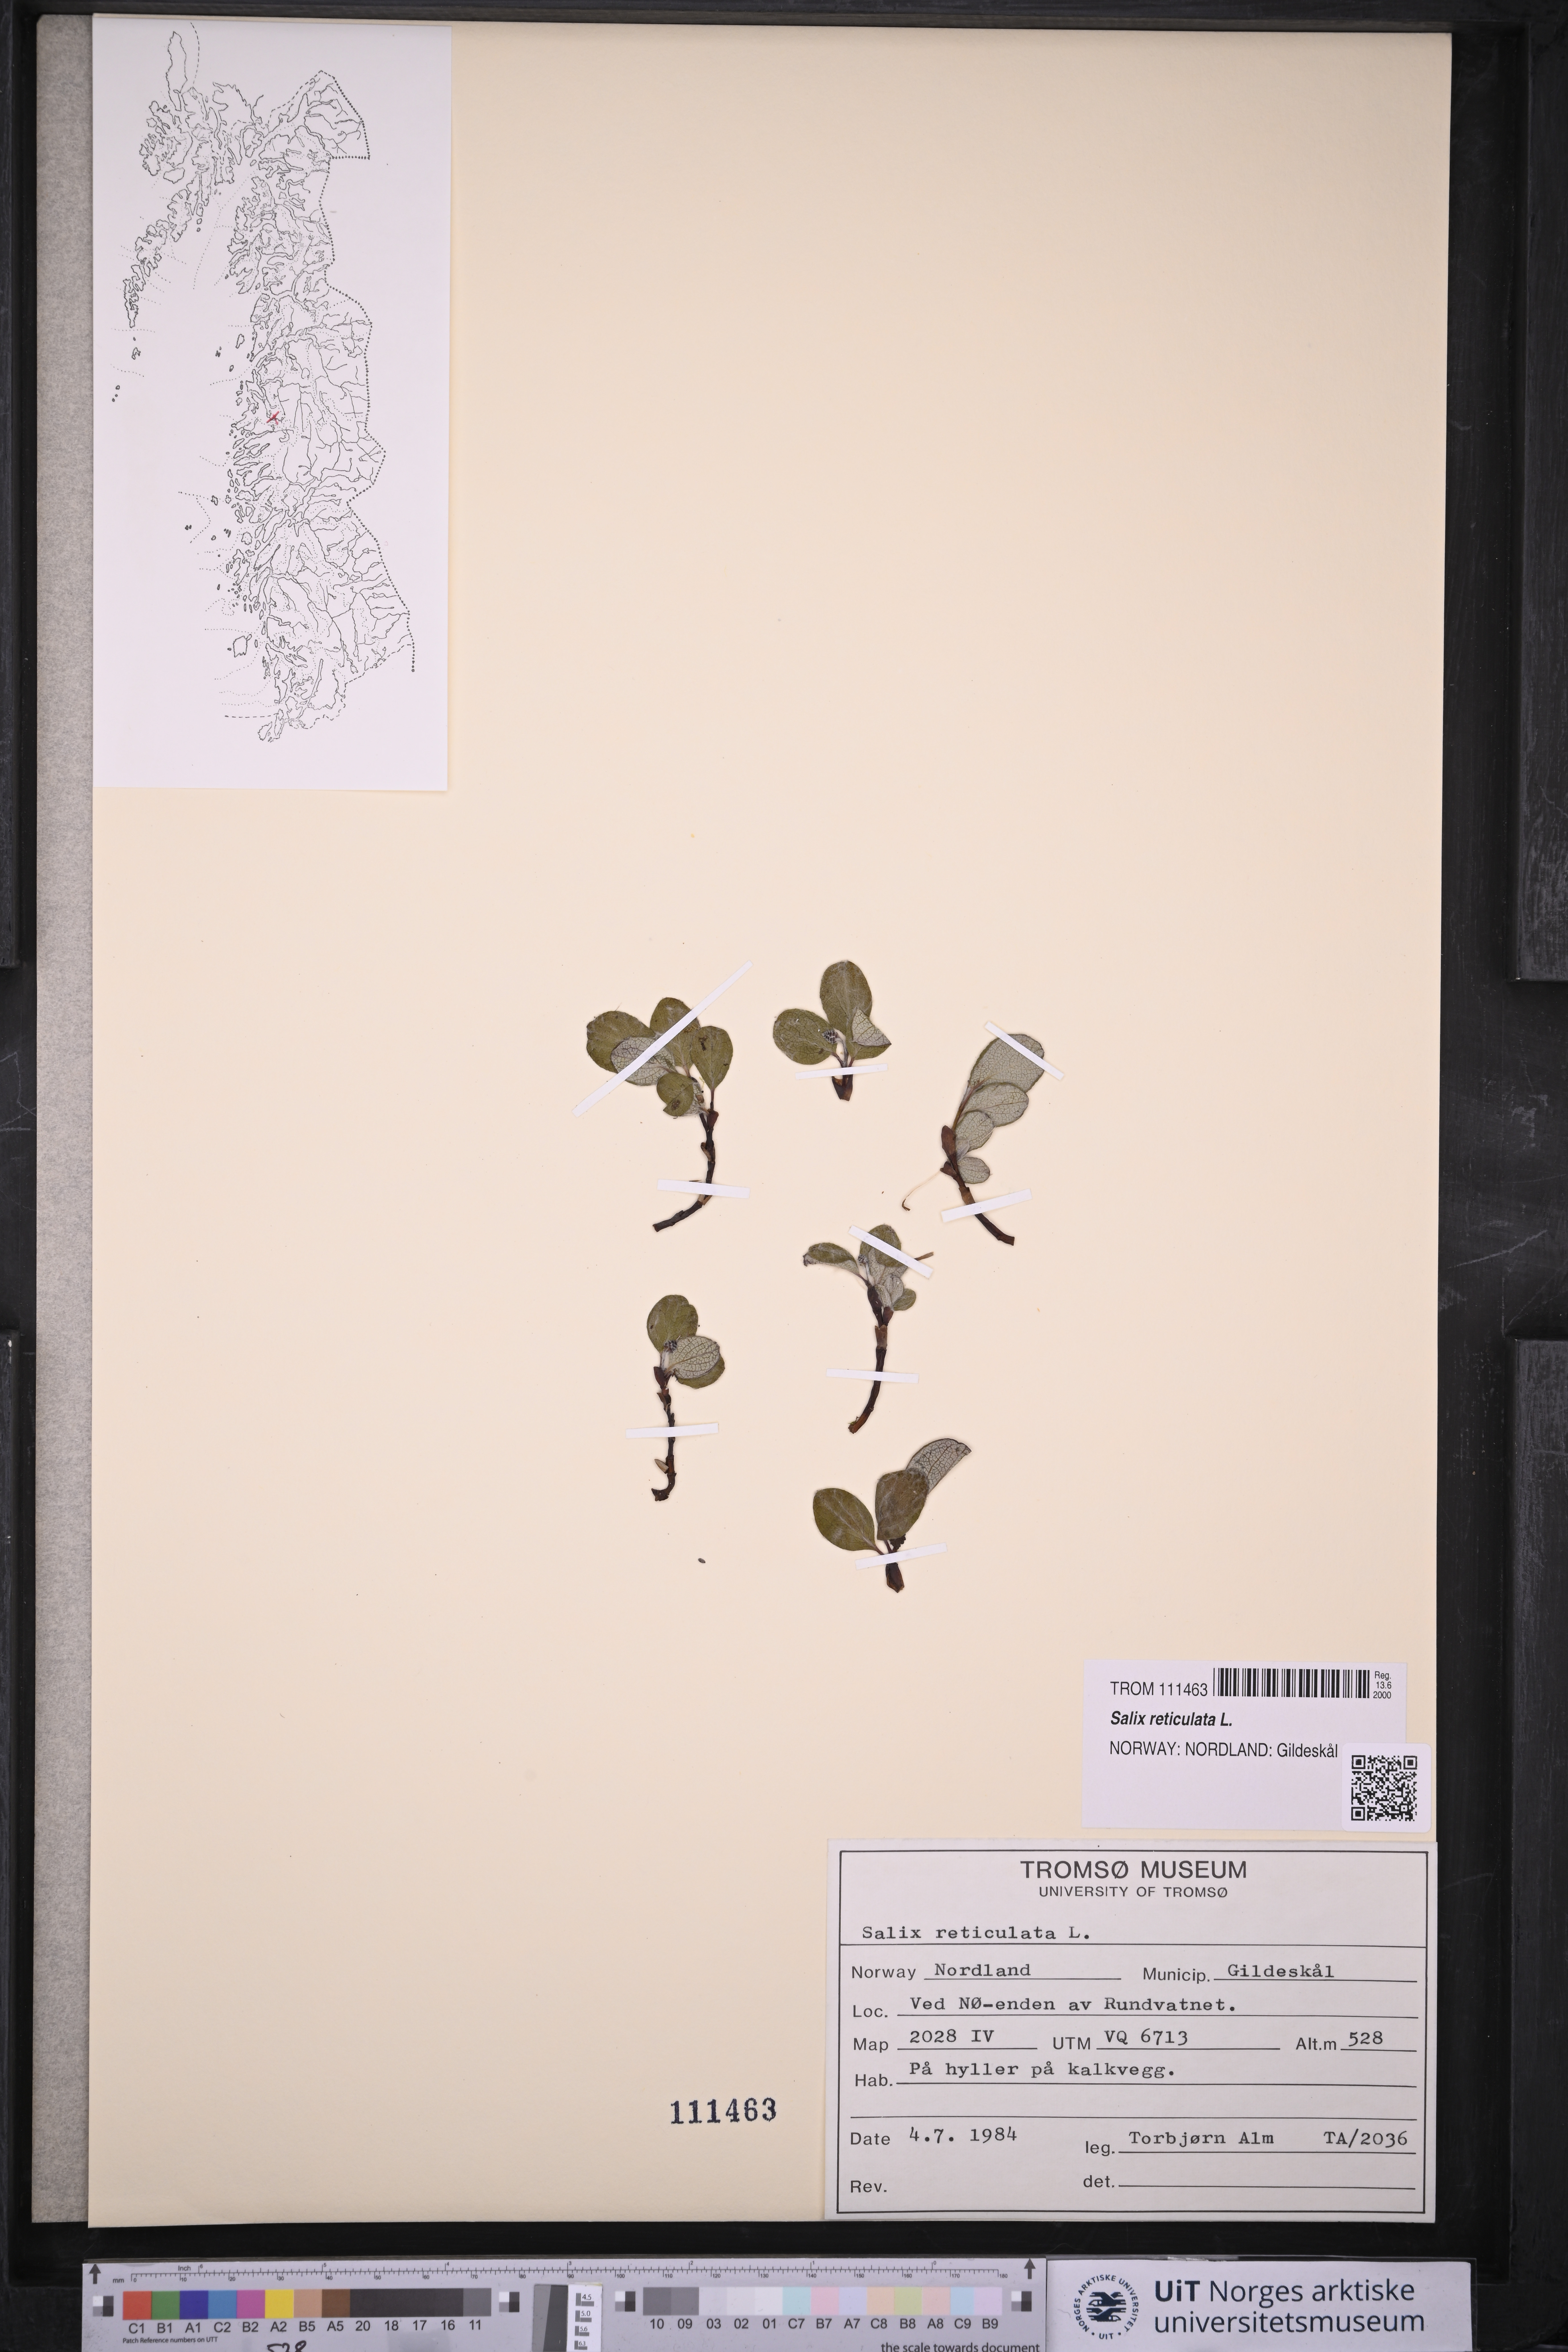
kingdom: Plantae
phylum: Tracheophyta
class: Magnoliopsida
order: Malpighiales
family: Salicaceae
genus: Salix
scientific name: Salix reticulata
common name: Net-leaved willow
